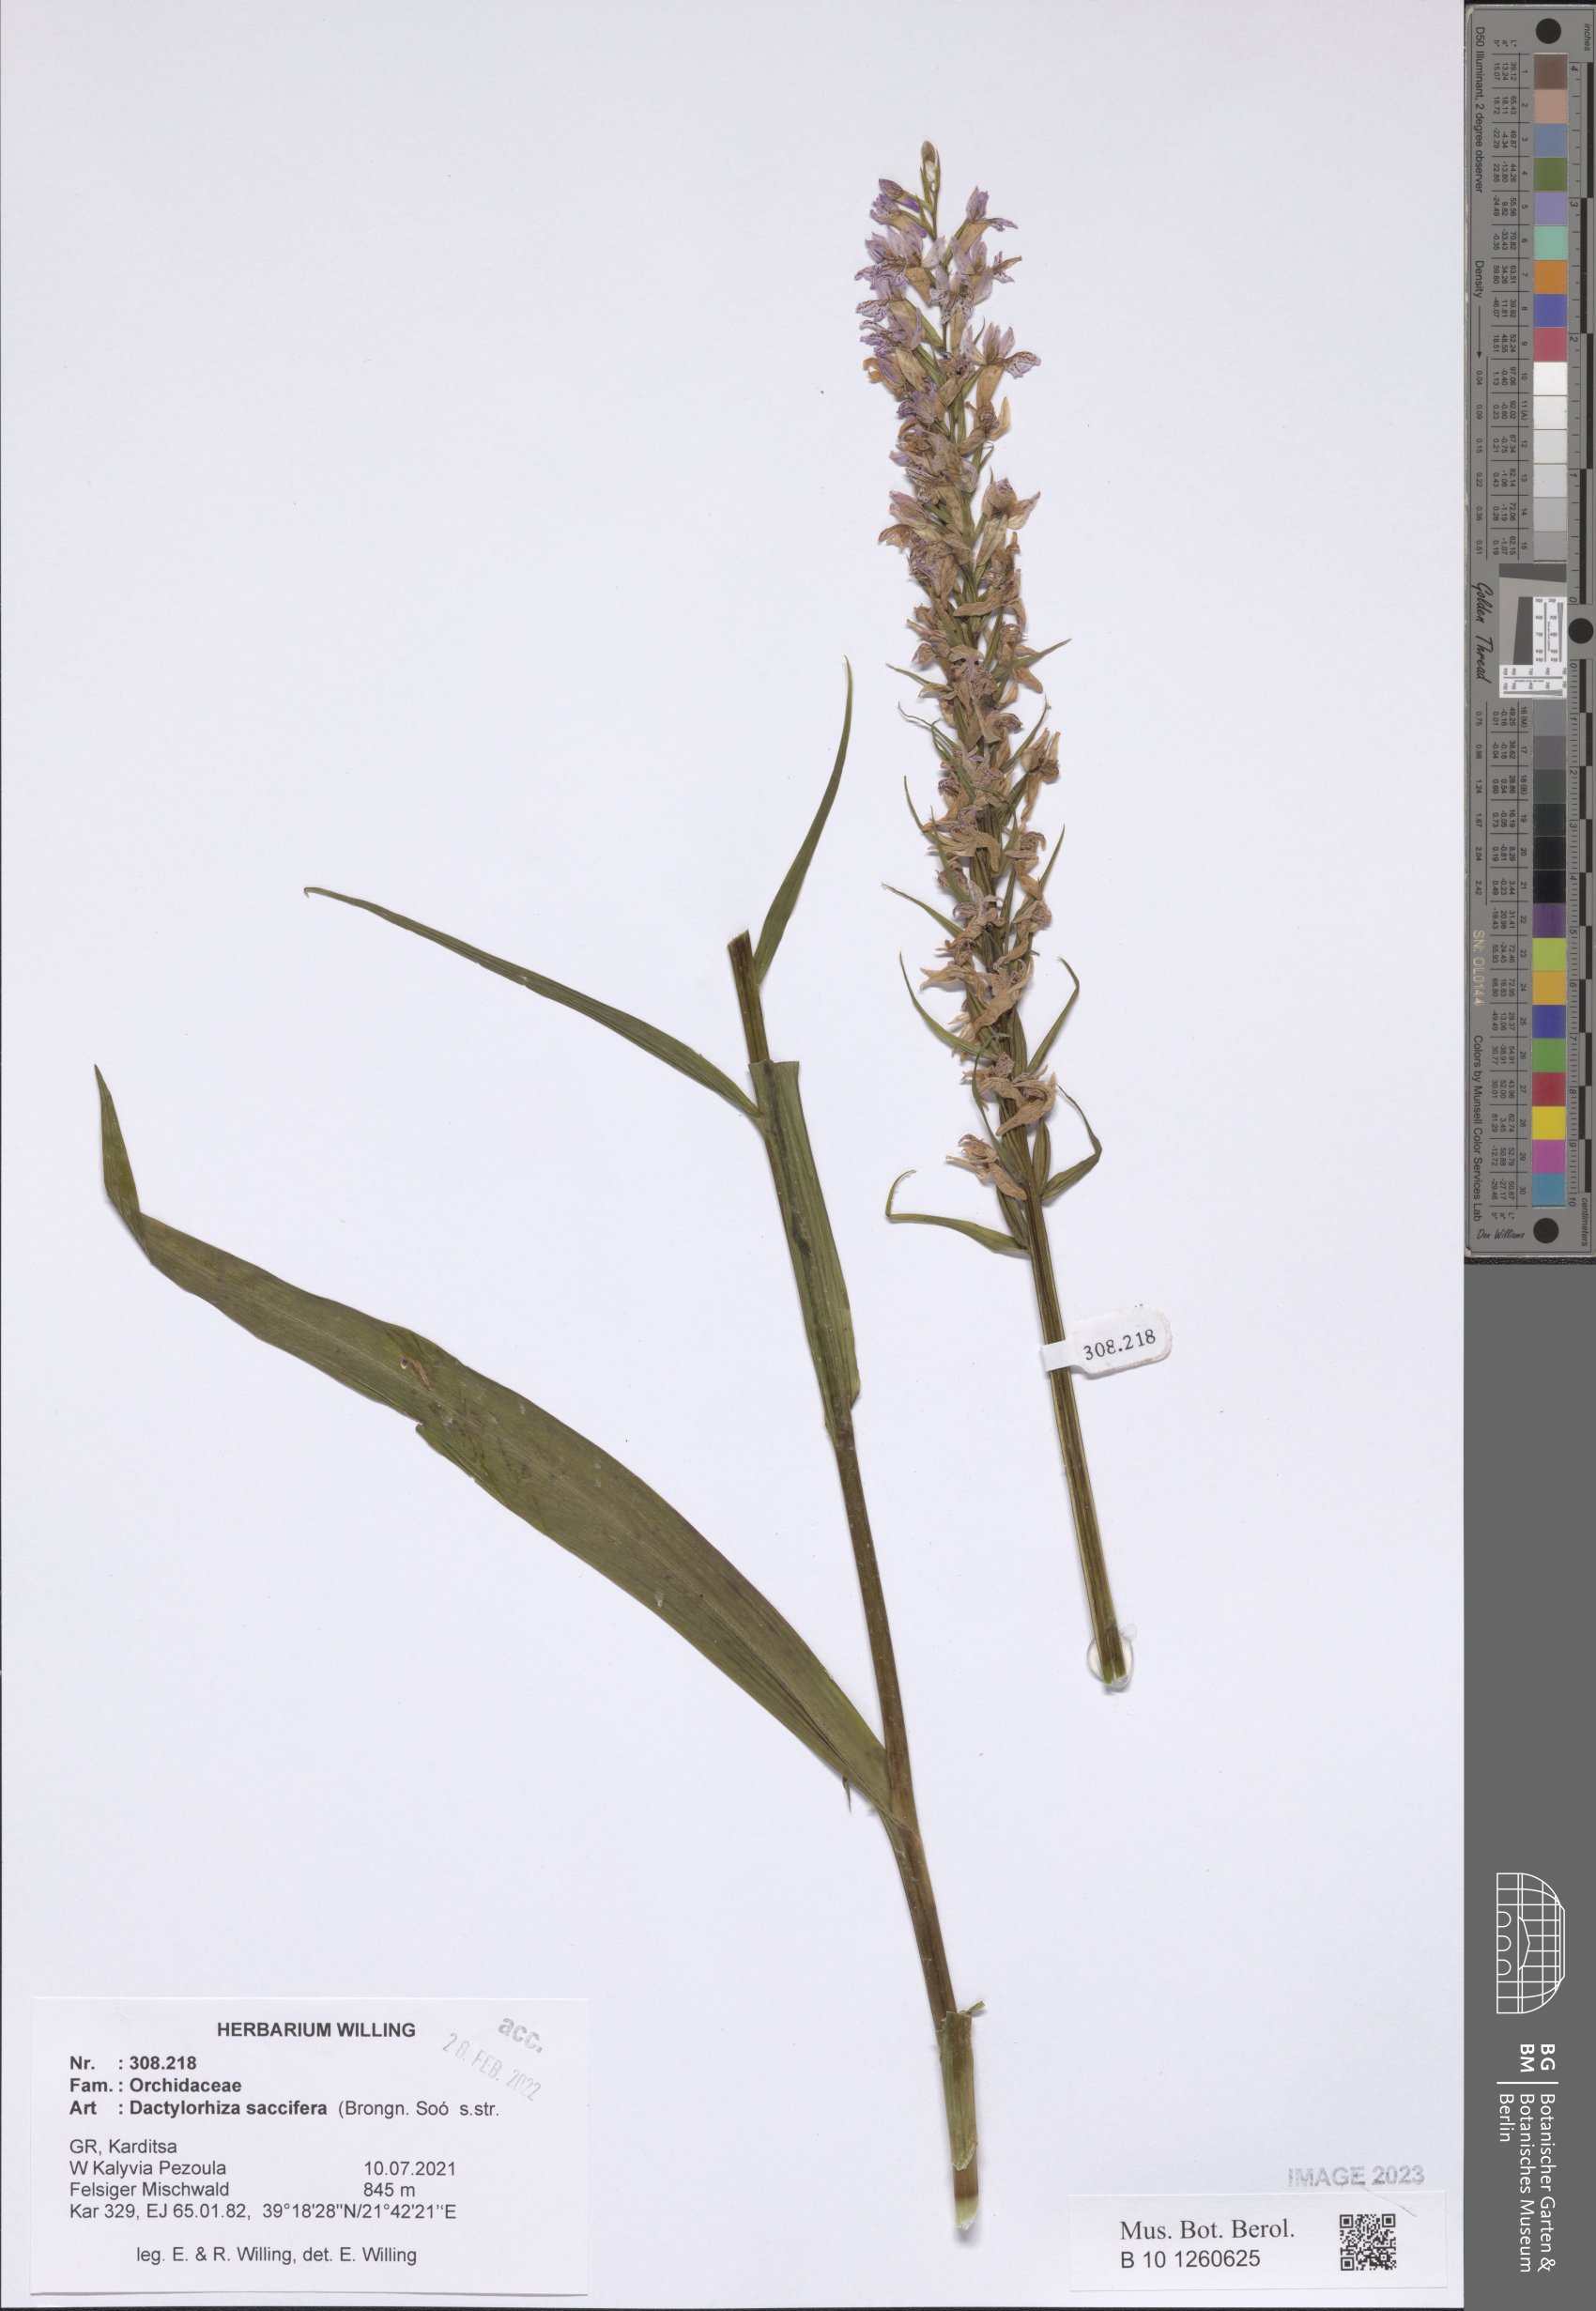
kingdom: Plantae
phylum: Tracheophyta
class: Liliopsida
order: Asparagales
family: Orchidaceae
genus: Dactylorhiza
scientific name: Dactylorhiza maculata
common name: Heath spotted-orchid
